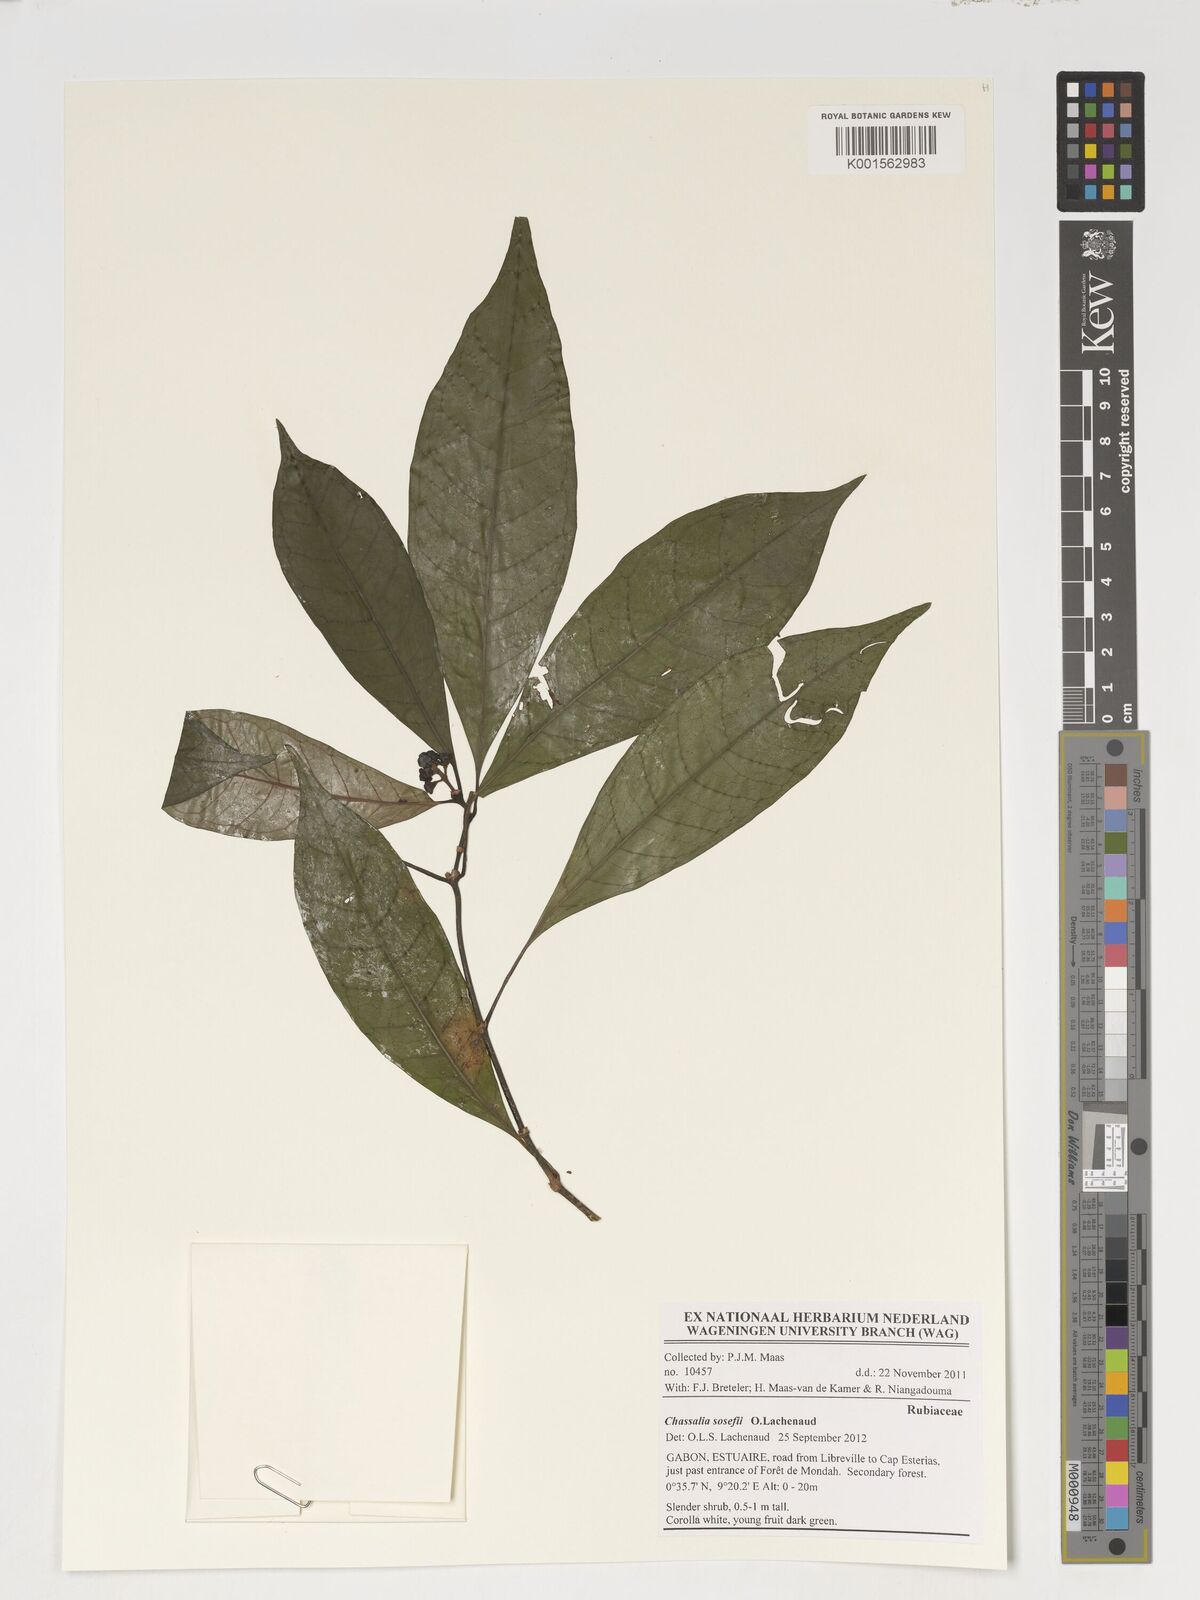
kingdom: Plantae
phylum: Tracheophyta
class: Magnoliopsida
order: Gentianales
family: Rubiaceae
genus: Chassalia
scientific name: Chassalia
